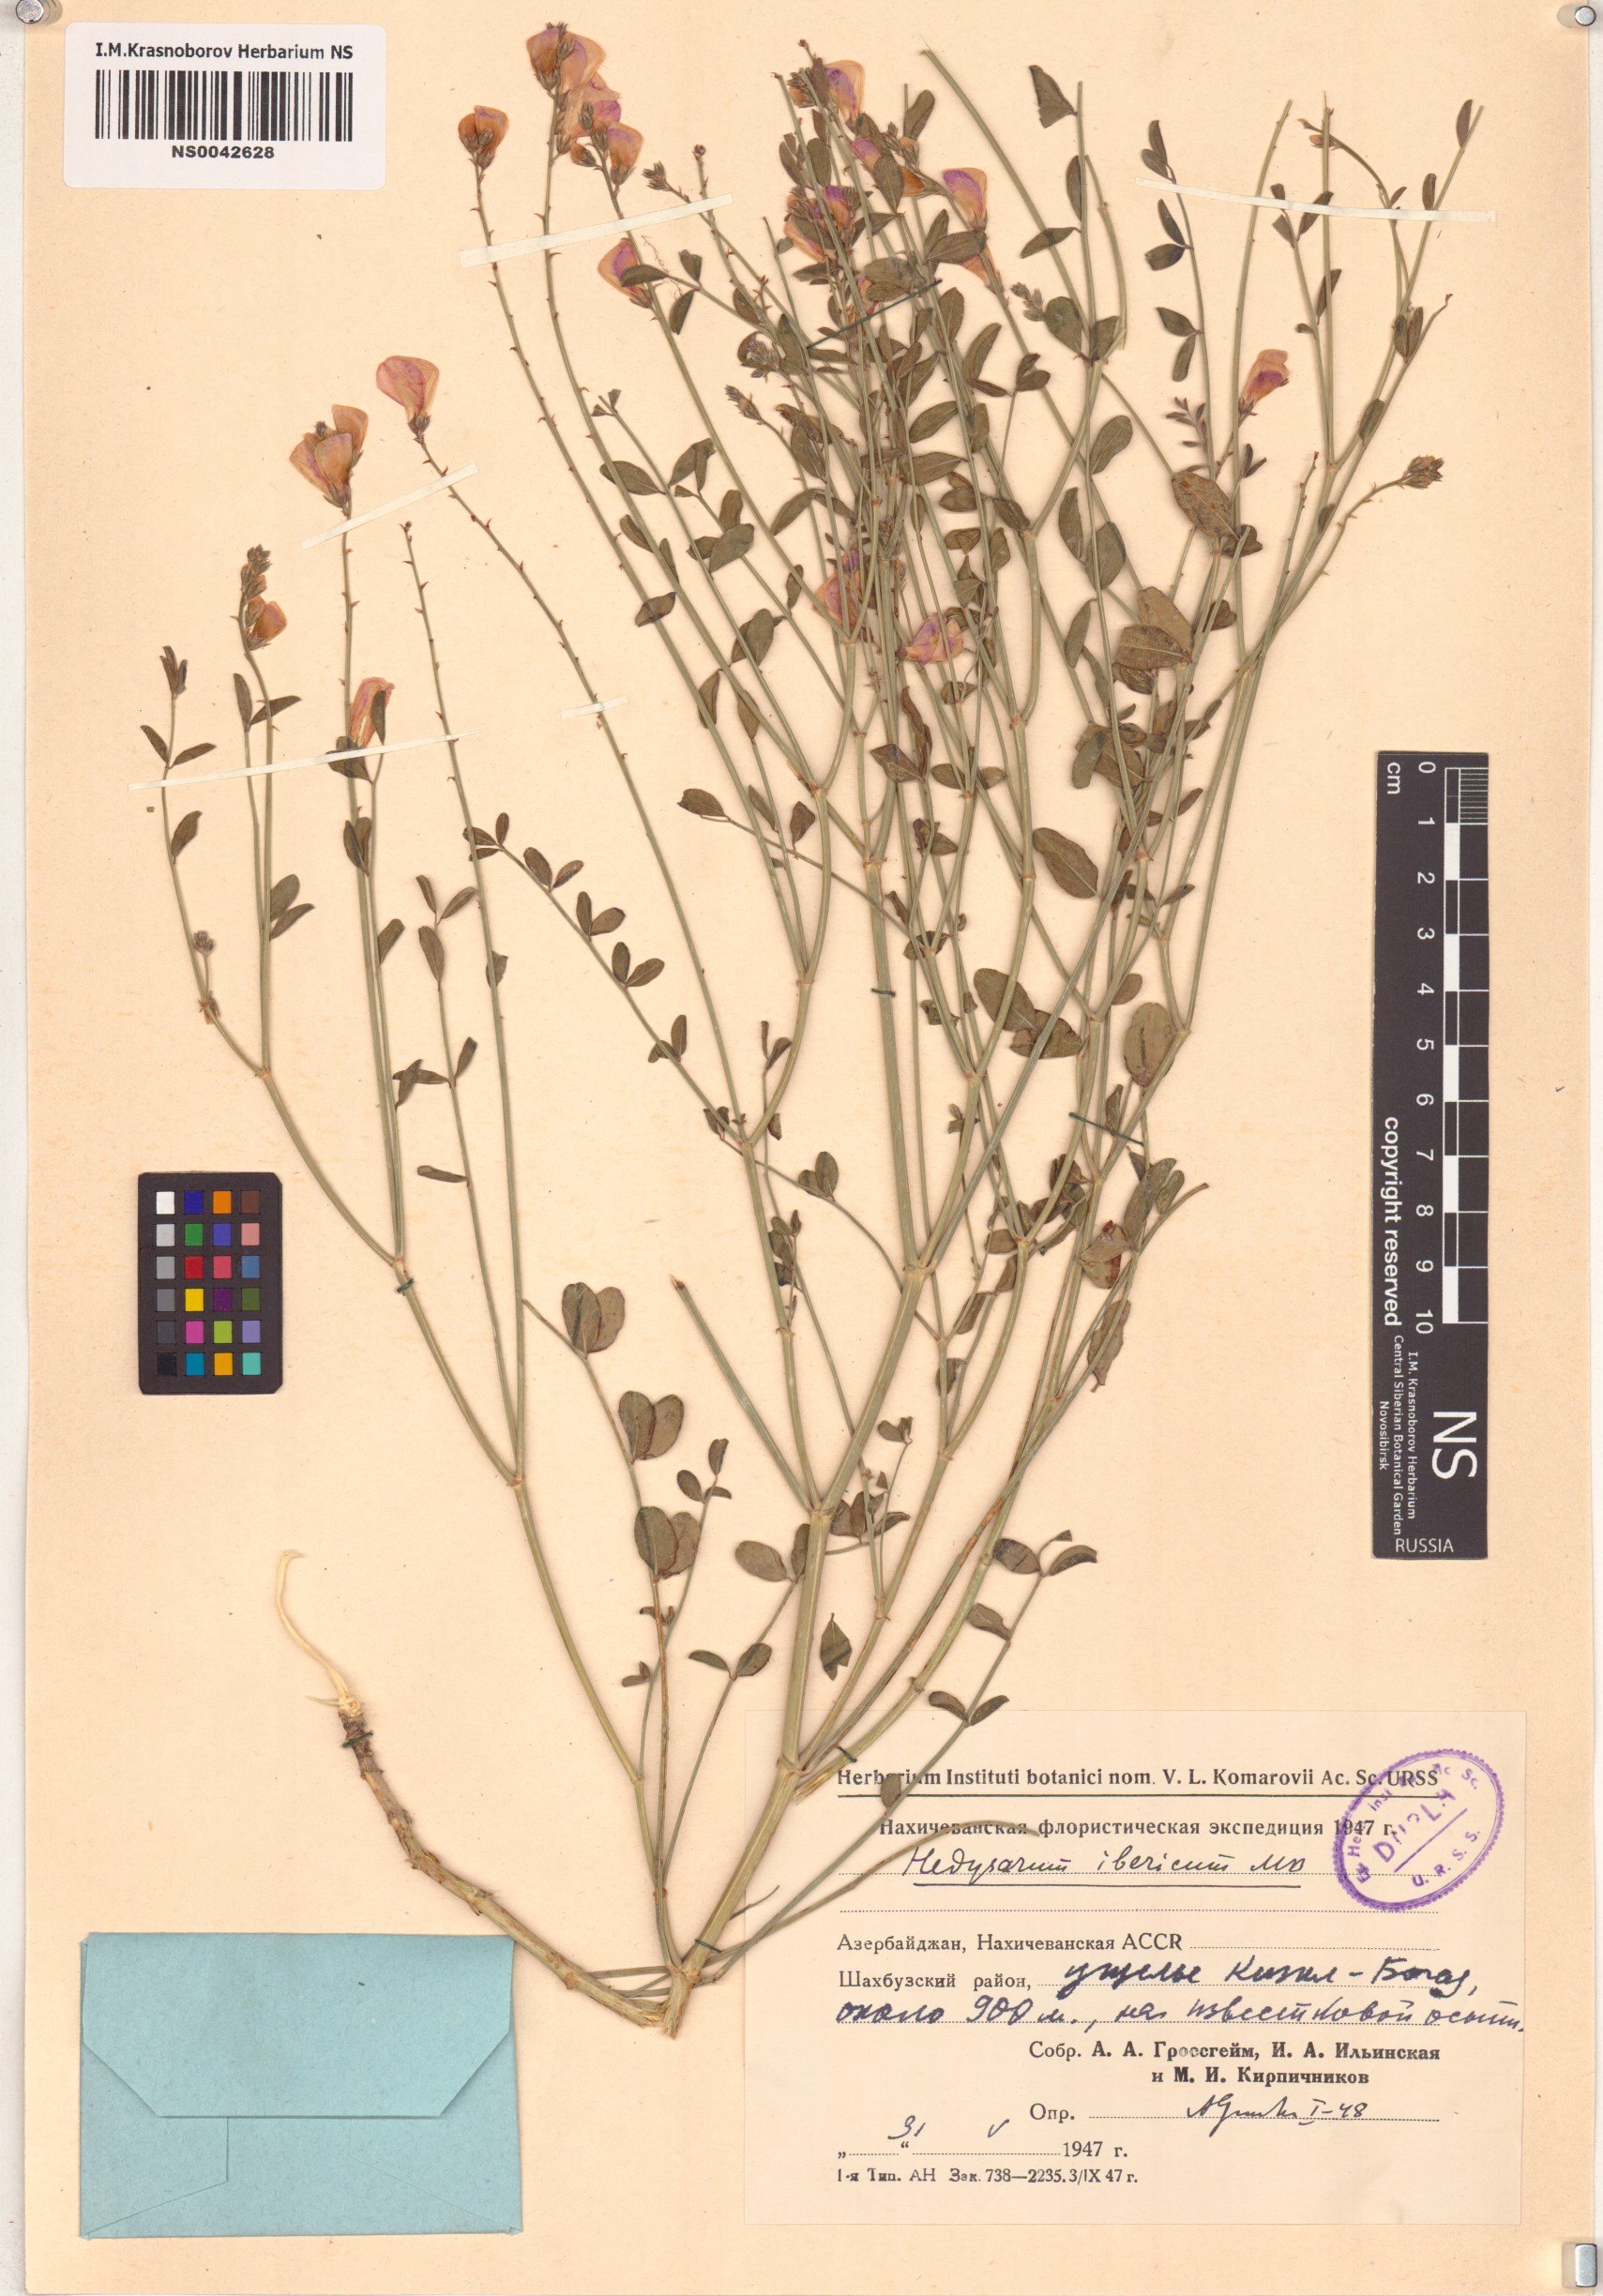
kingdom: Plantae
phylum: Tracheophyta
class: Magnoliopsida
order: Fabales
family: Fabaceae
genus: Hedysarum
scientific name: Hedysarum ibericum
